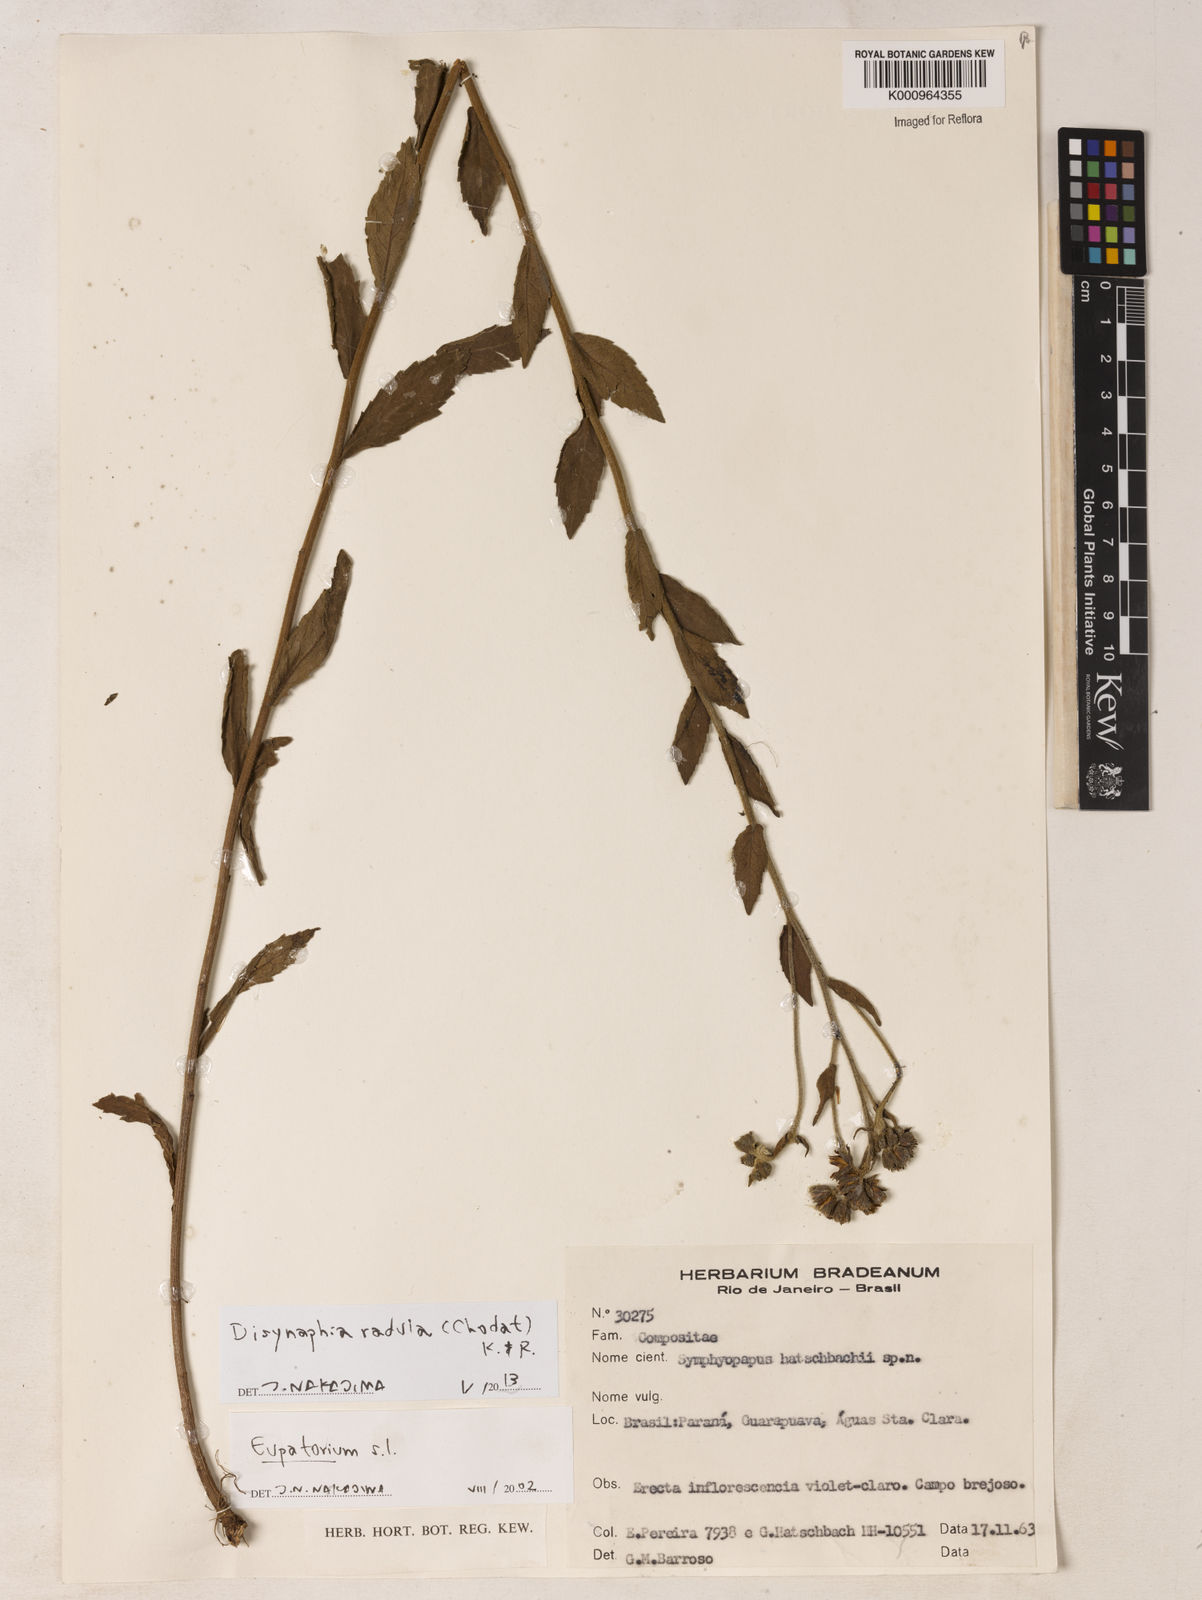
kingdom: Plantae
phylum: Tracheophyta
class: Magnoliopsida
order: Asterales
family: Asteraceae
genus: Disynaphia
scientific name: Disynaphia radula
